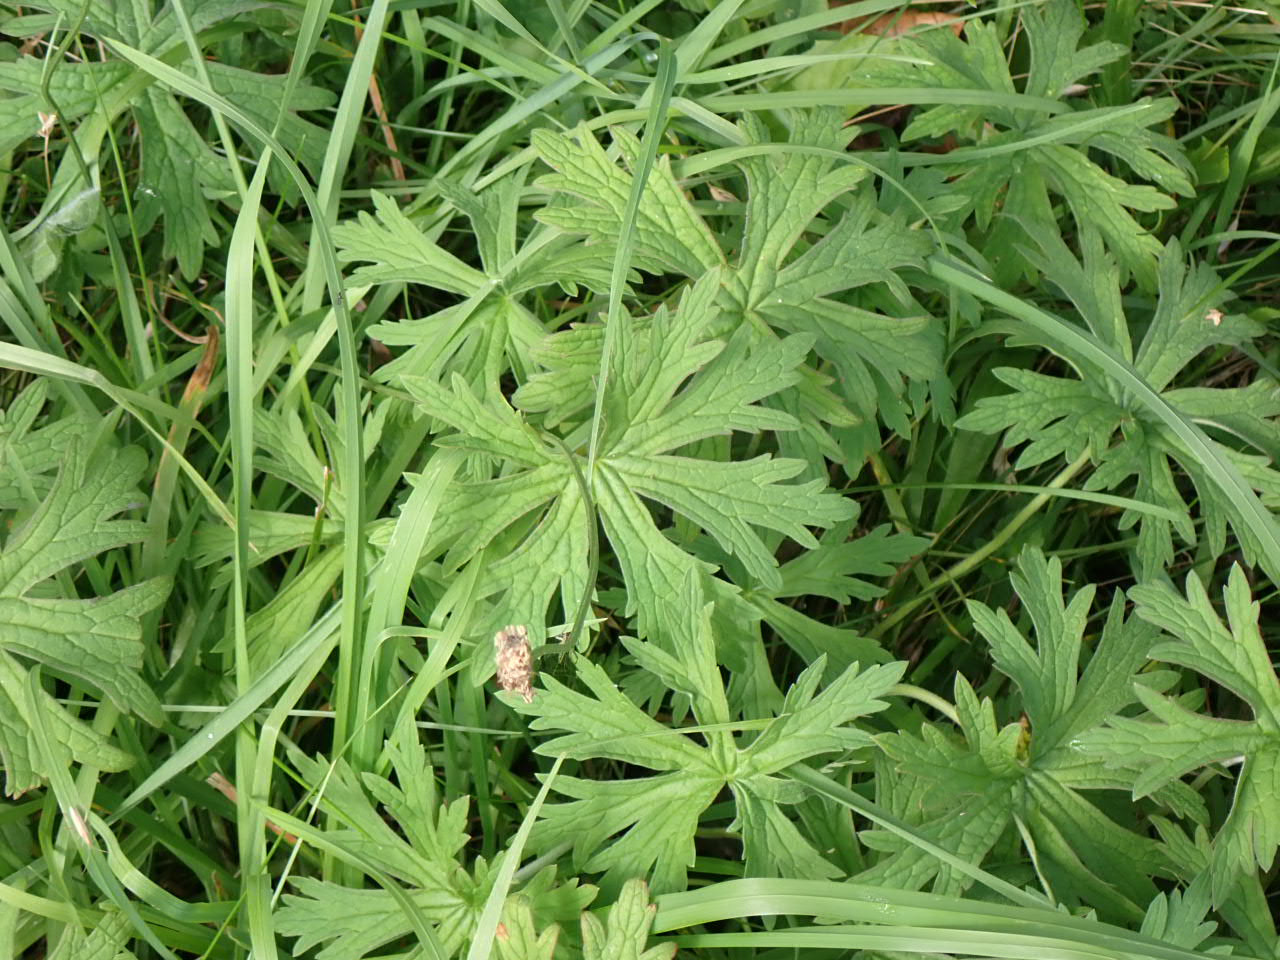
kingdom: Plantae
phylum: Tracheophyta
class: Magnoliopsida
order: Geraniales
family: Geraniaceae
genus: Geranium
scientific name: Geranium pratense
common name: Eng-storkenæb
